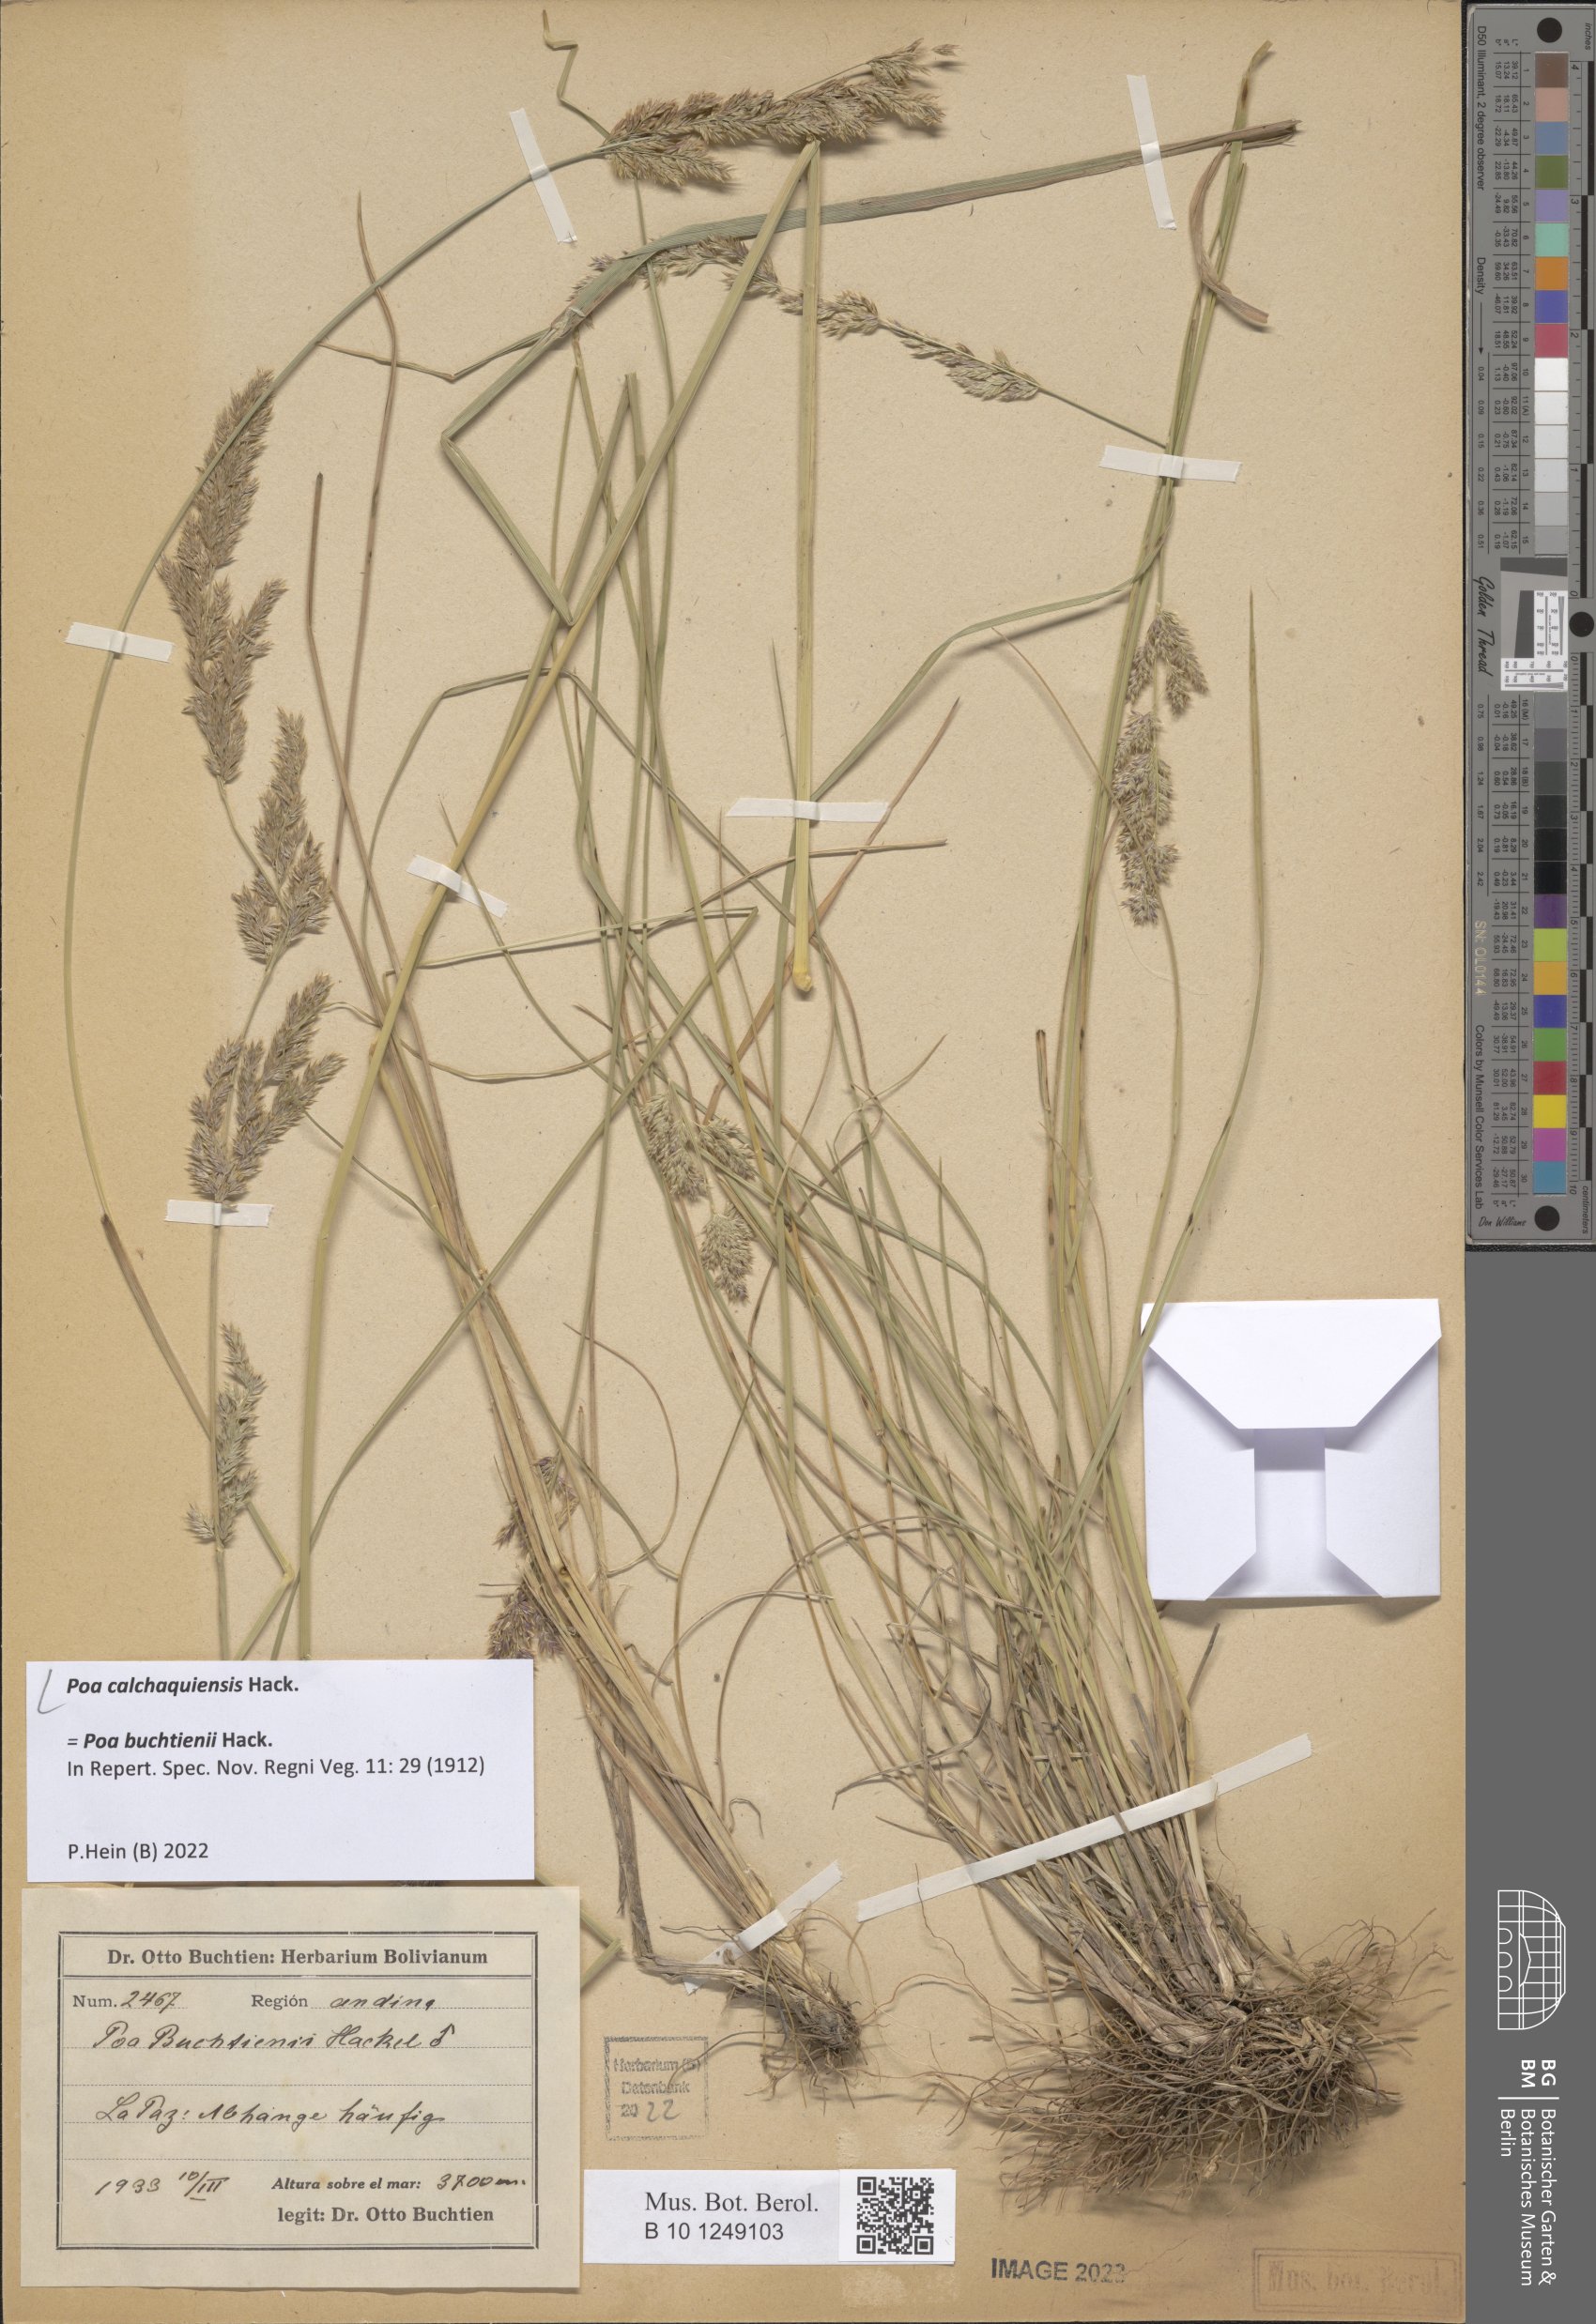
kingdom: Plantae
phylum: Tracheophyta
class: Liliopsida
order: Poales
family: Poaceae
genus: Poa
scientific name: Poa calchaquiensis
